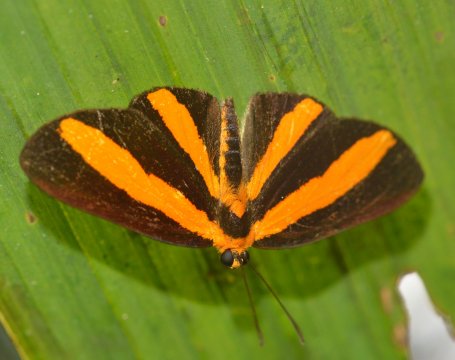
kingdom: Animalia
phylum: Arthropoda
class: Insecta
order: Lepidoptera
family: Lycaenidae
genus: Mesenopsis
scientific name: Mesenopsis melanochlora
